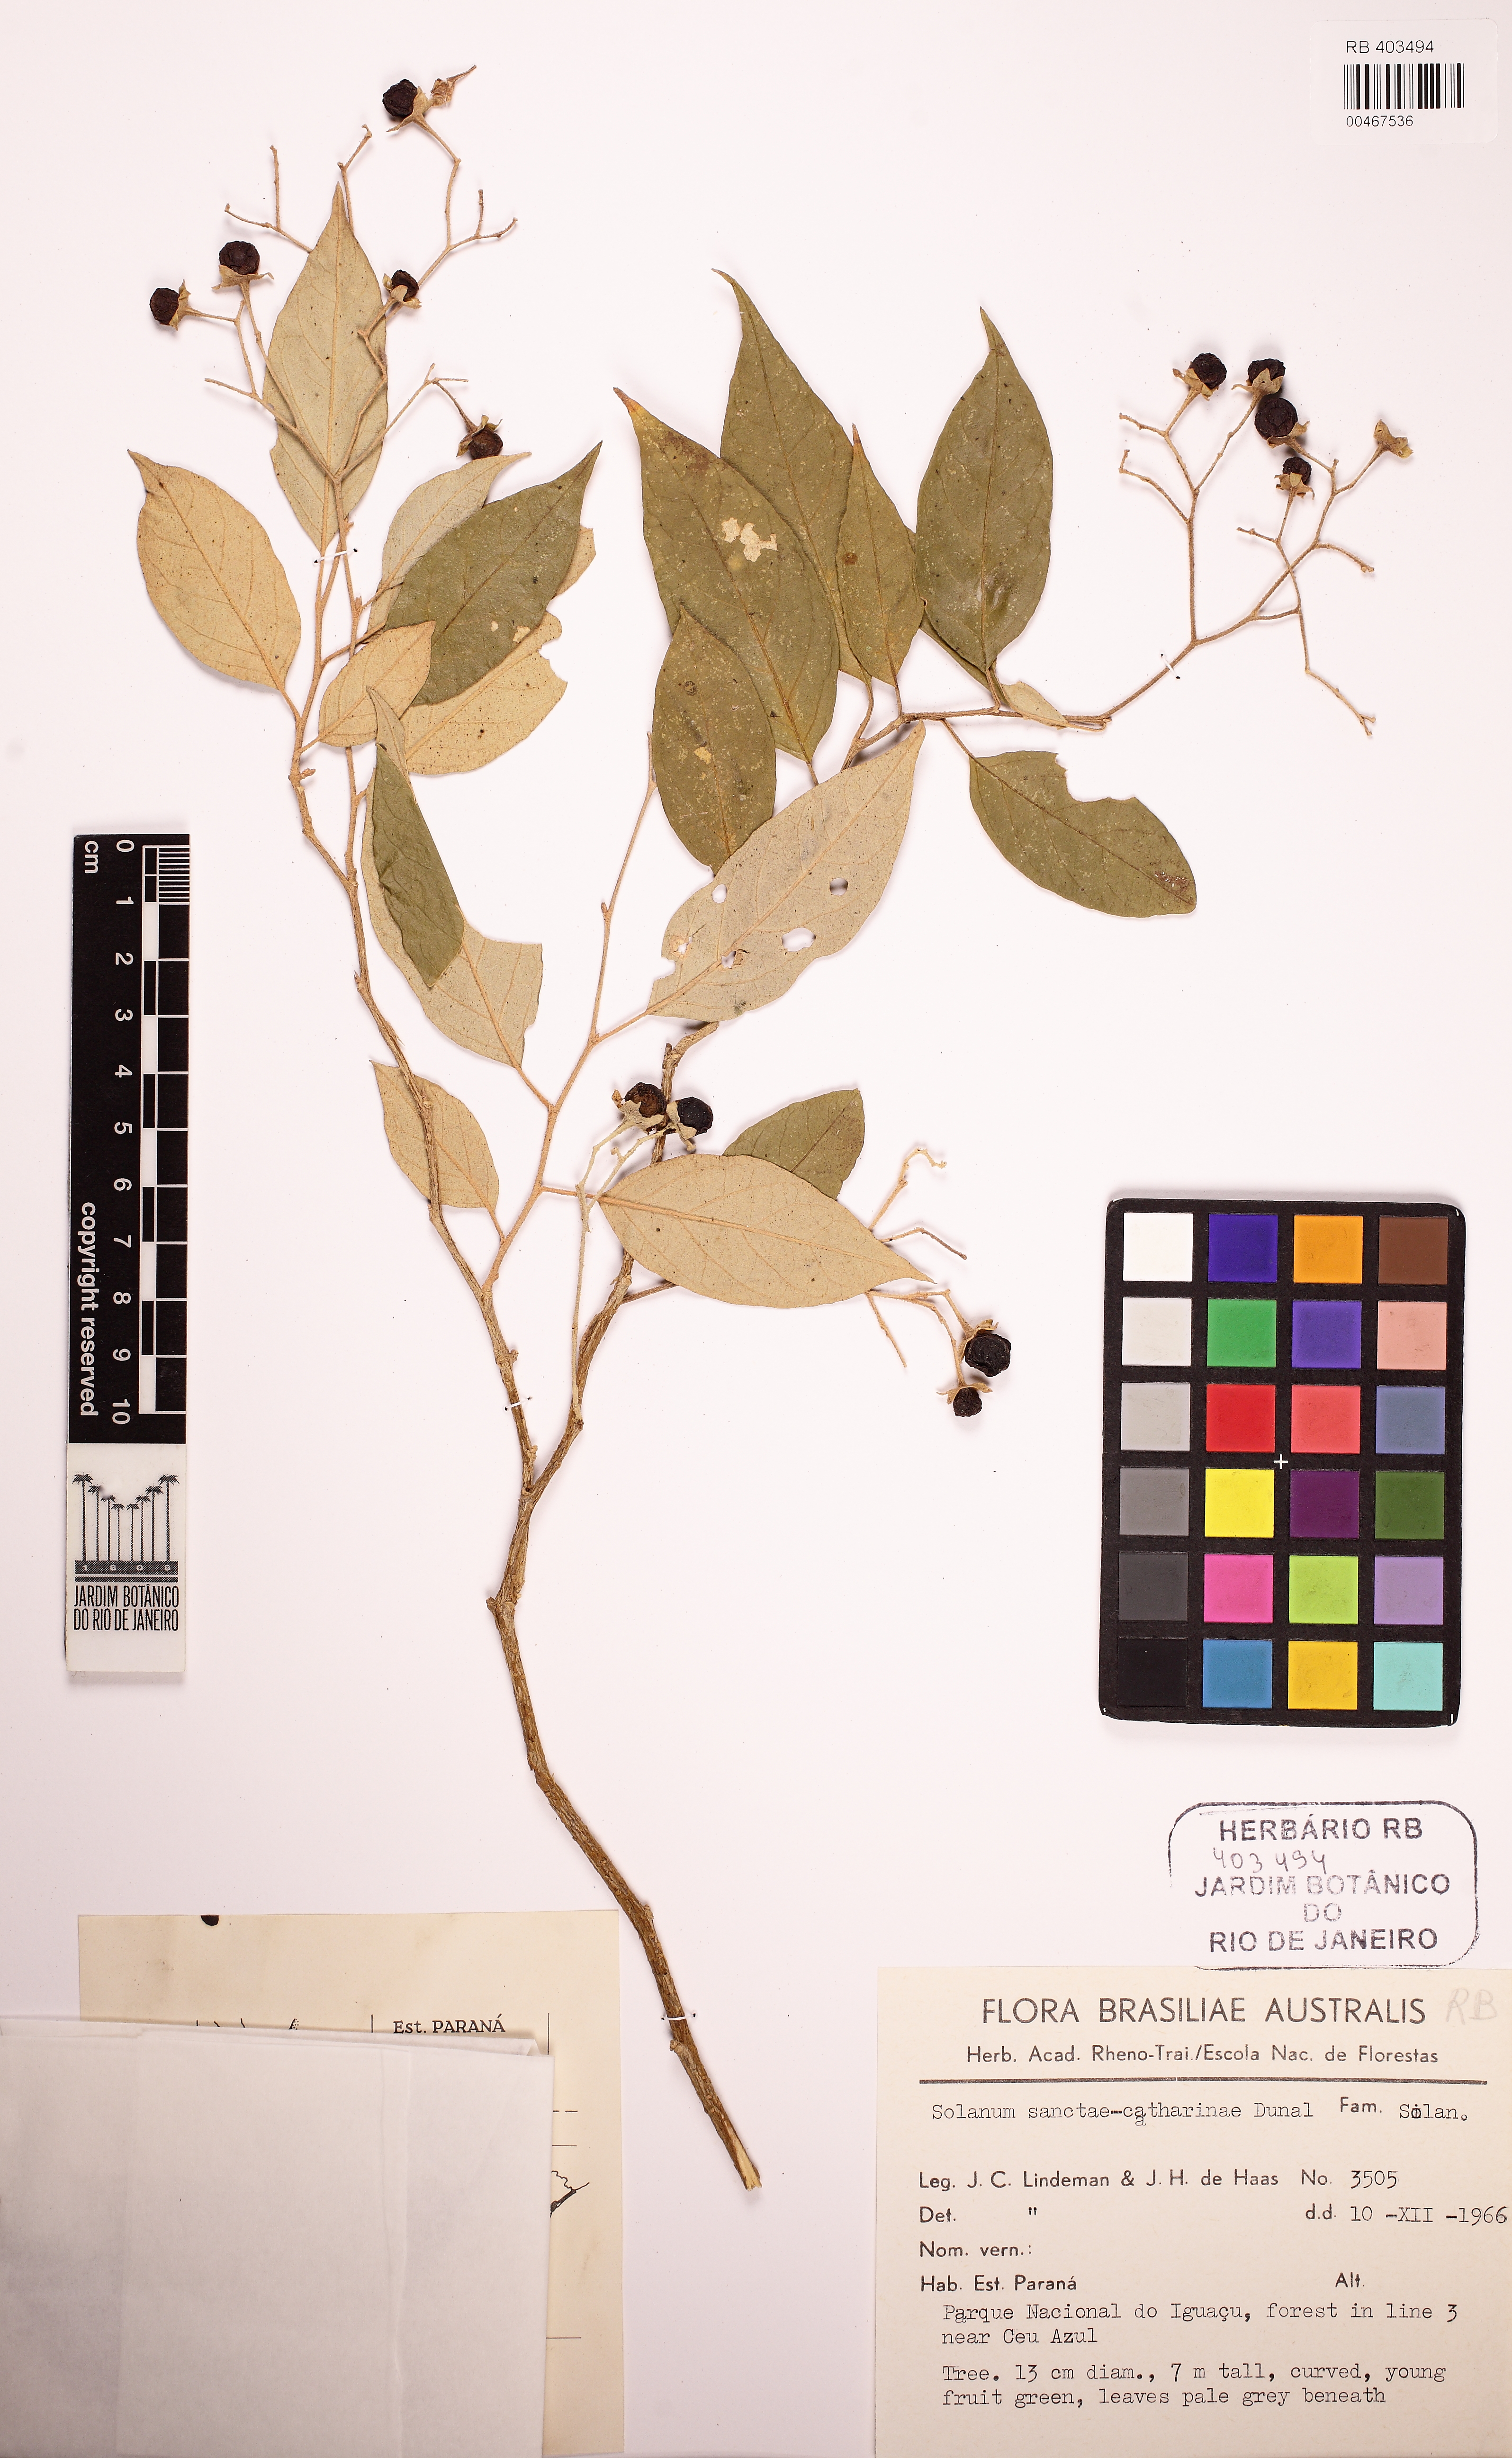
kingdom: Plantae
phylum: Tracheophyta
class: Magnoliopsida
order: Solanales
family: Solanaceae
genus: Solanum
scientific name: Solanum sanctae-catharinae
